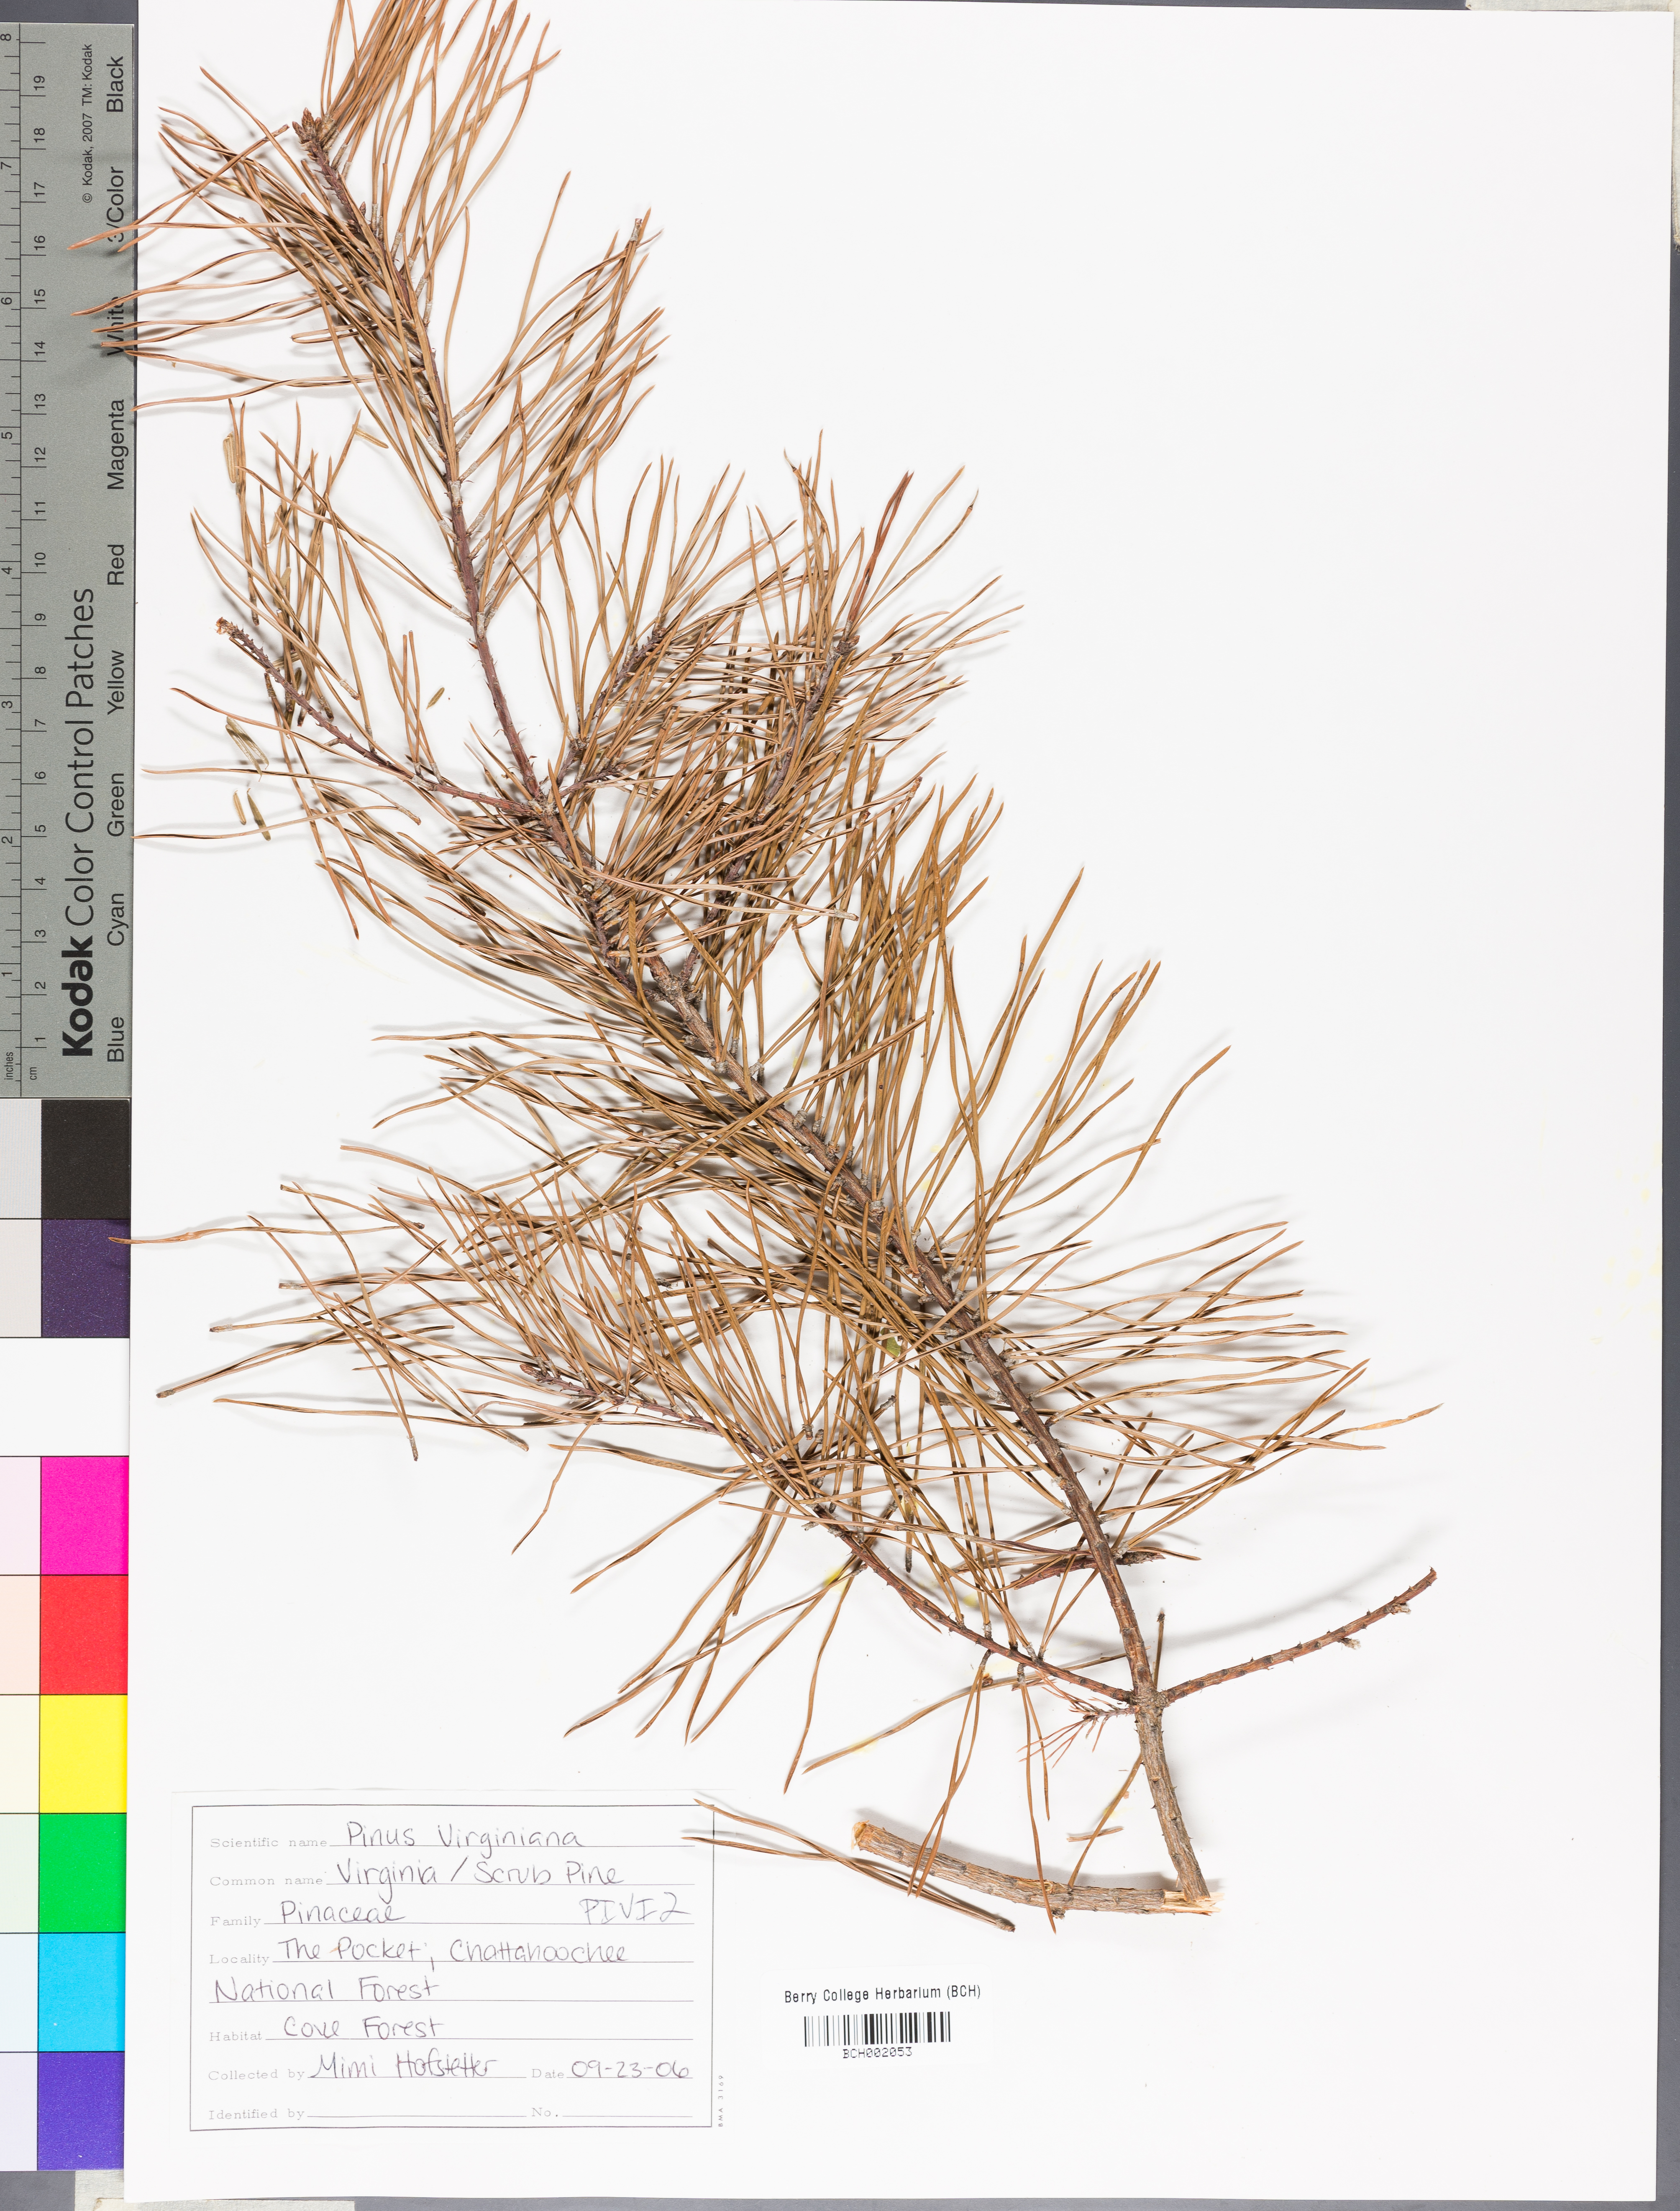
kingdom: Plantae
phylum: Tracheophyta
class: Pinopsida
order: Pinales
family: Pinaceae
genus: Pinus
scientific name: Pinus virginiana
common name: Scrub pine
